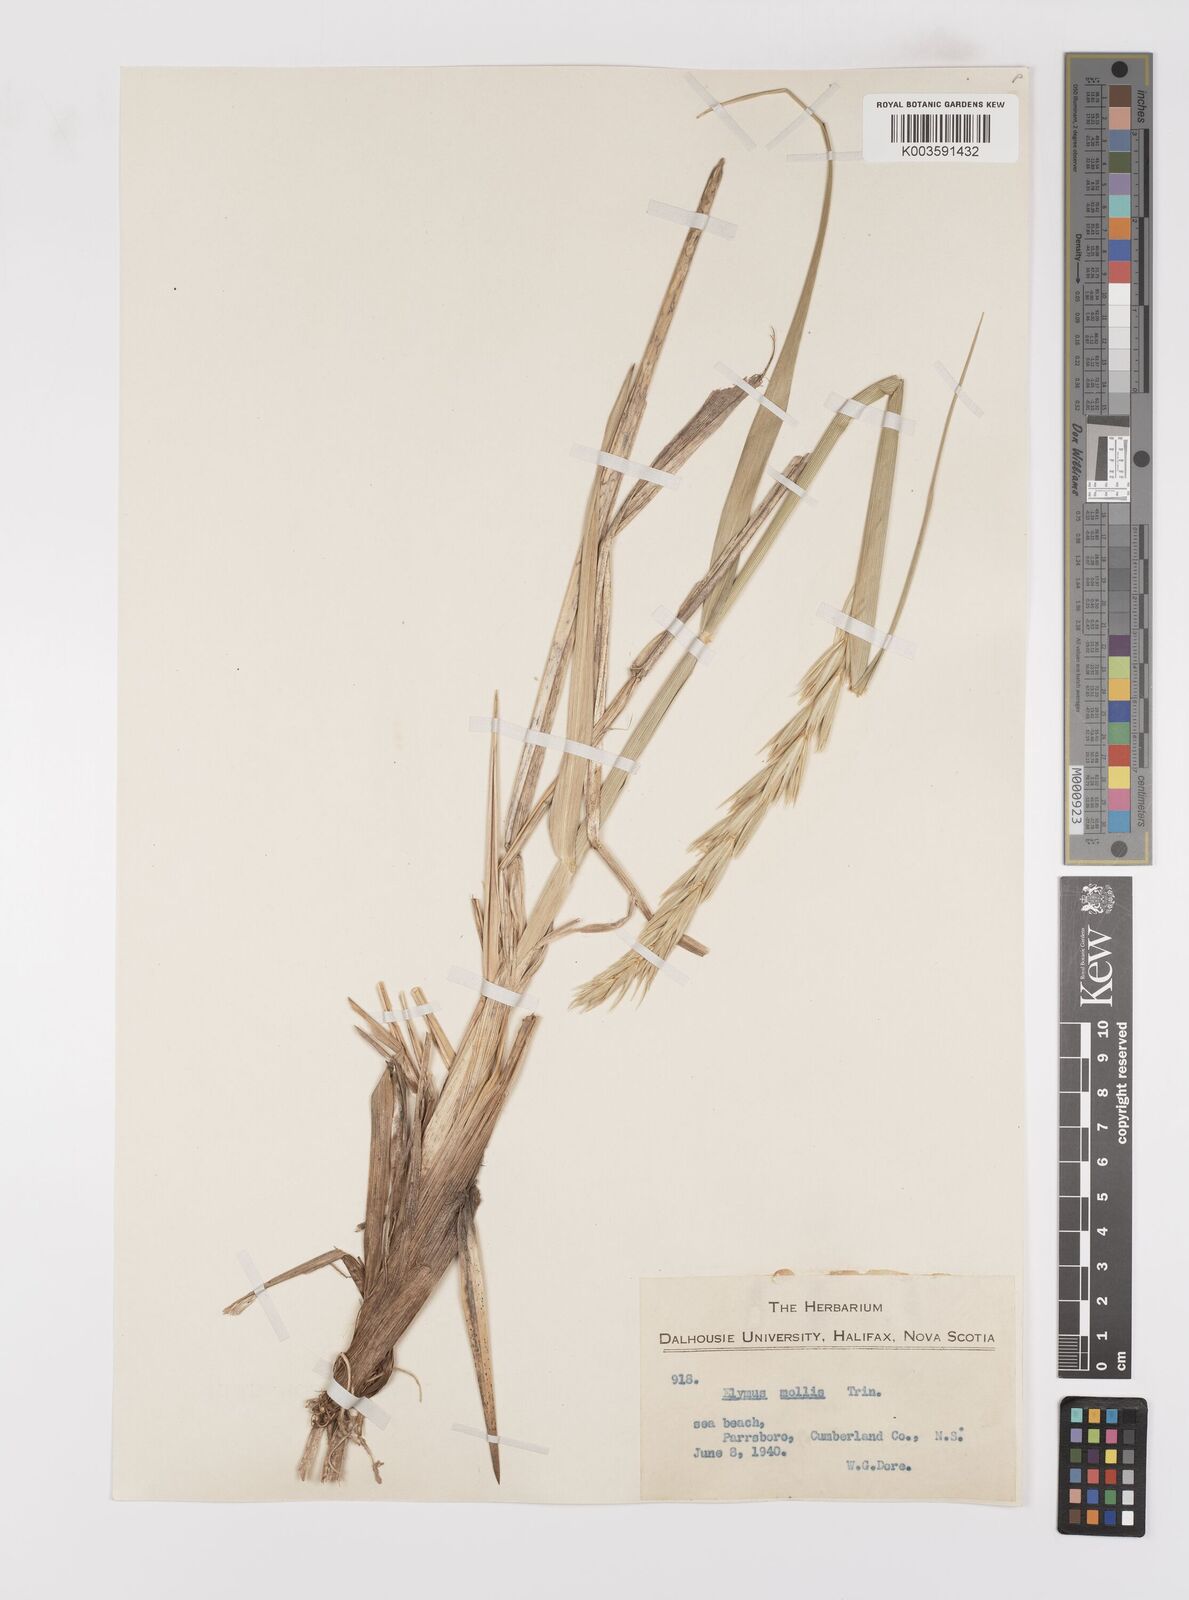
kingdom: Plantae
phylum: Tracheophyta
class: Liliopsida
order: Poales
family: Poaceae
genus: Leymus
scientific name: Leymus mollis
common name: American dune grass
